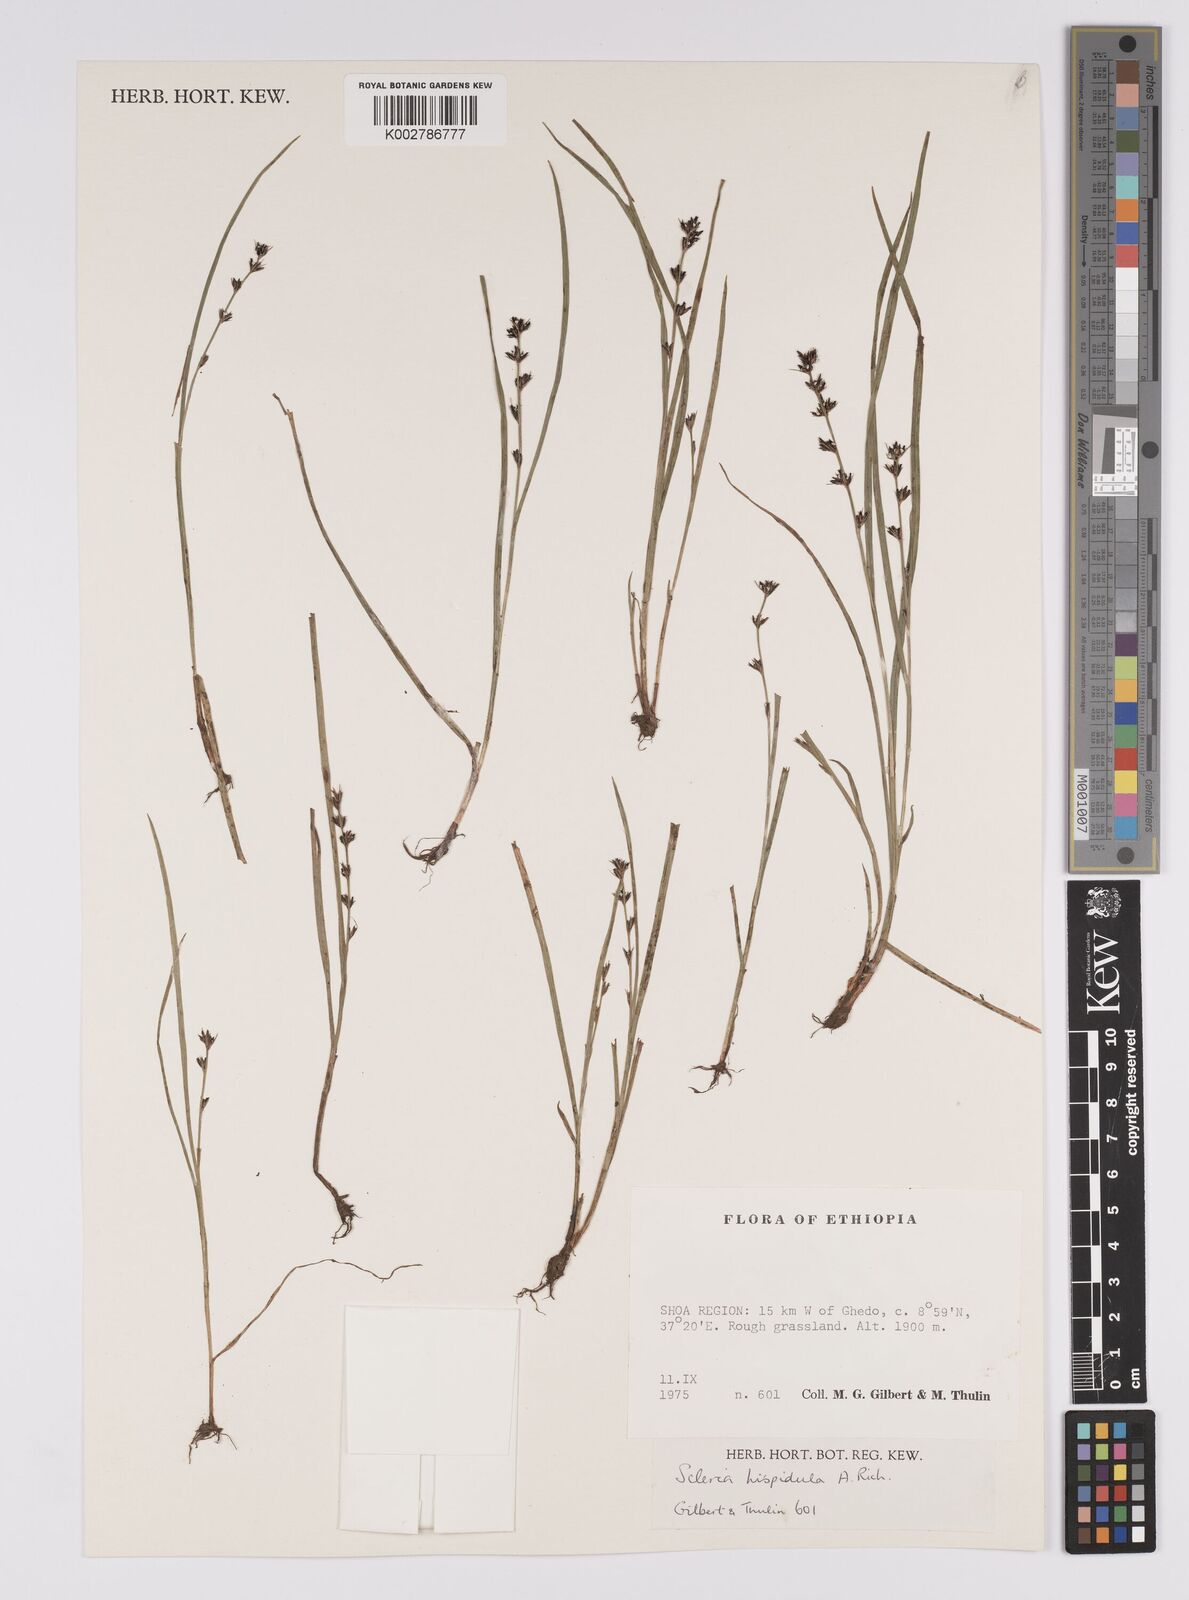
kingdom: Plantae
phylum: Tracheophyta
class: Liliopsida
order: Poales
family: Cyperaceae
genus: Scleria
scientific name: Scleria hispidula
